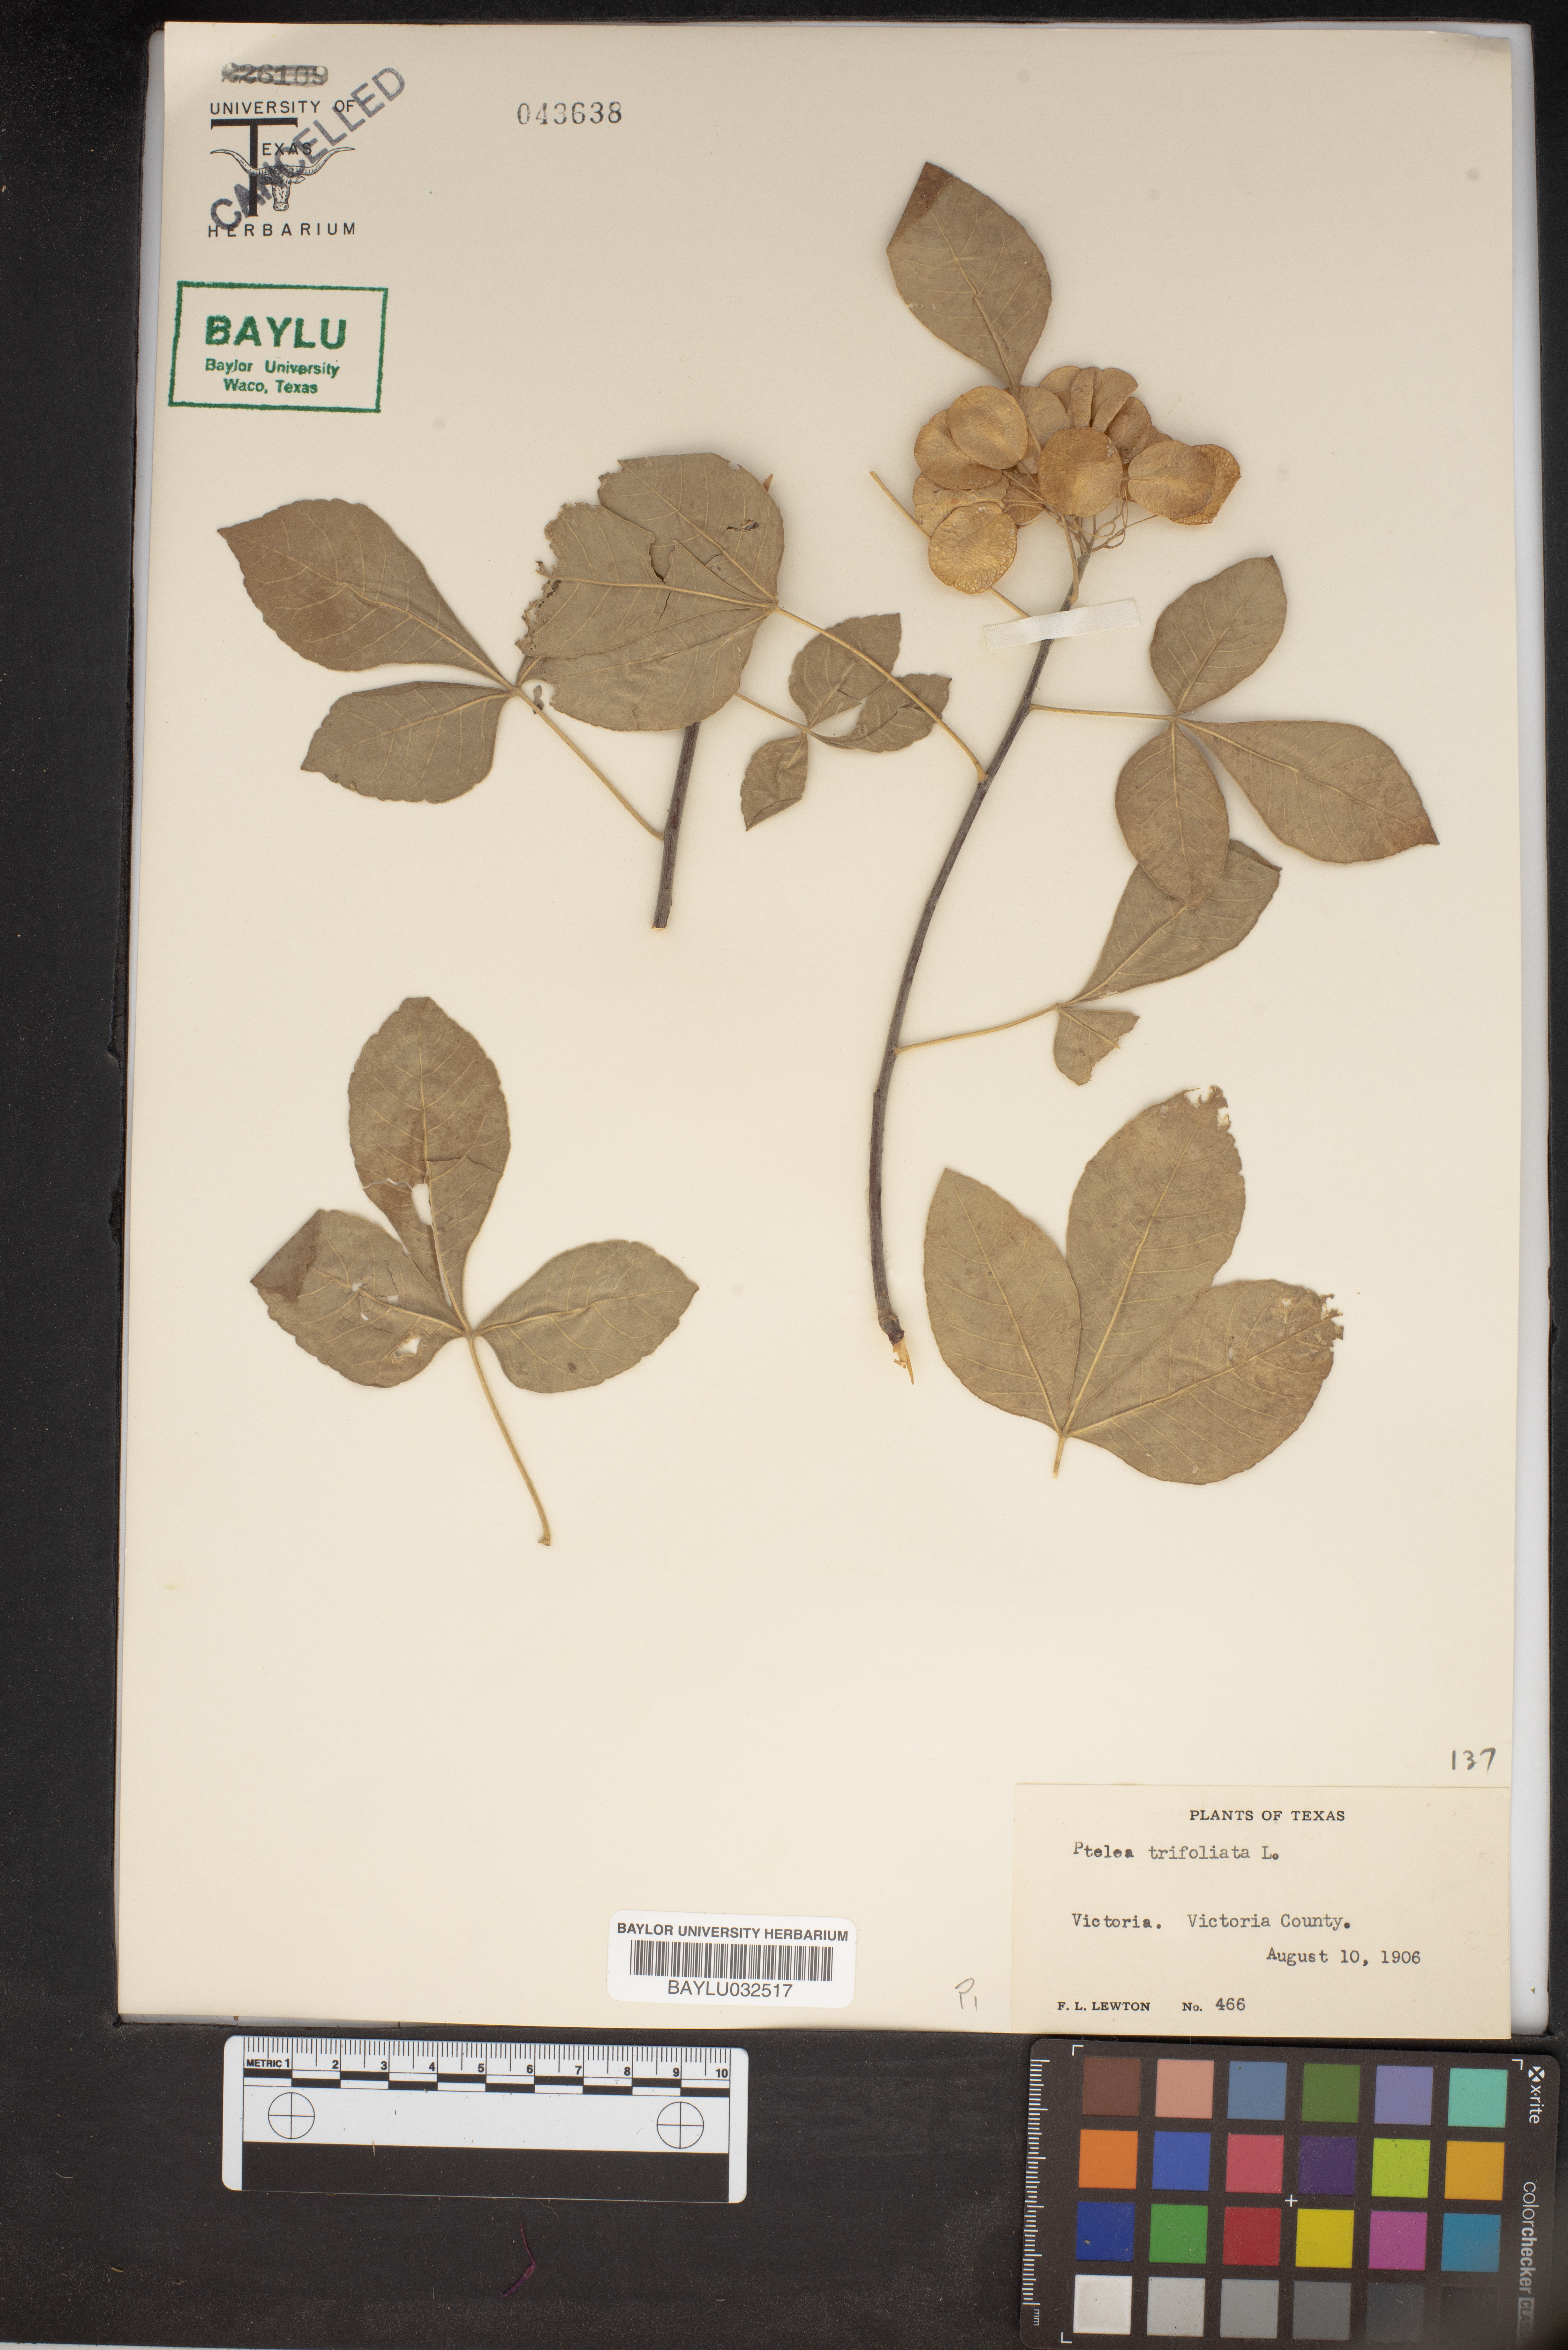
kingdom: Plantae
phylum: Tracheophyta
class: Magnoliopsida
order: Sapindales
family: Rutaceae
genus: Ptelea
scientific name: Ptelea trifoliata
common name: Common hop-tree
